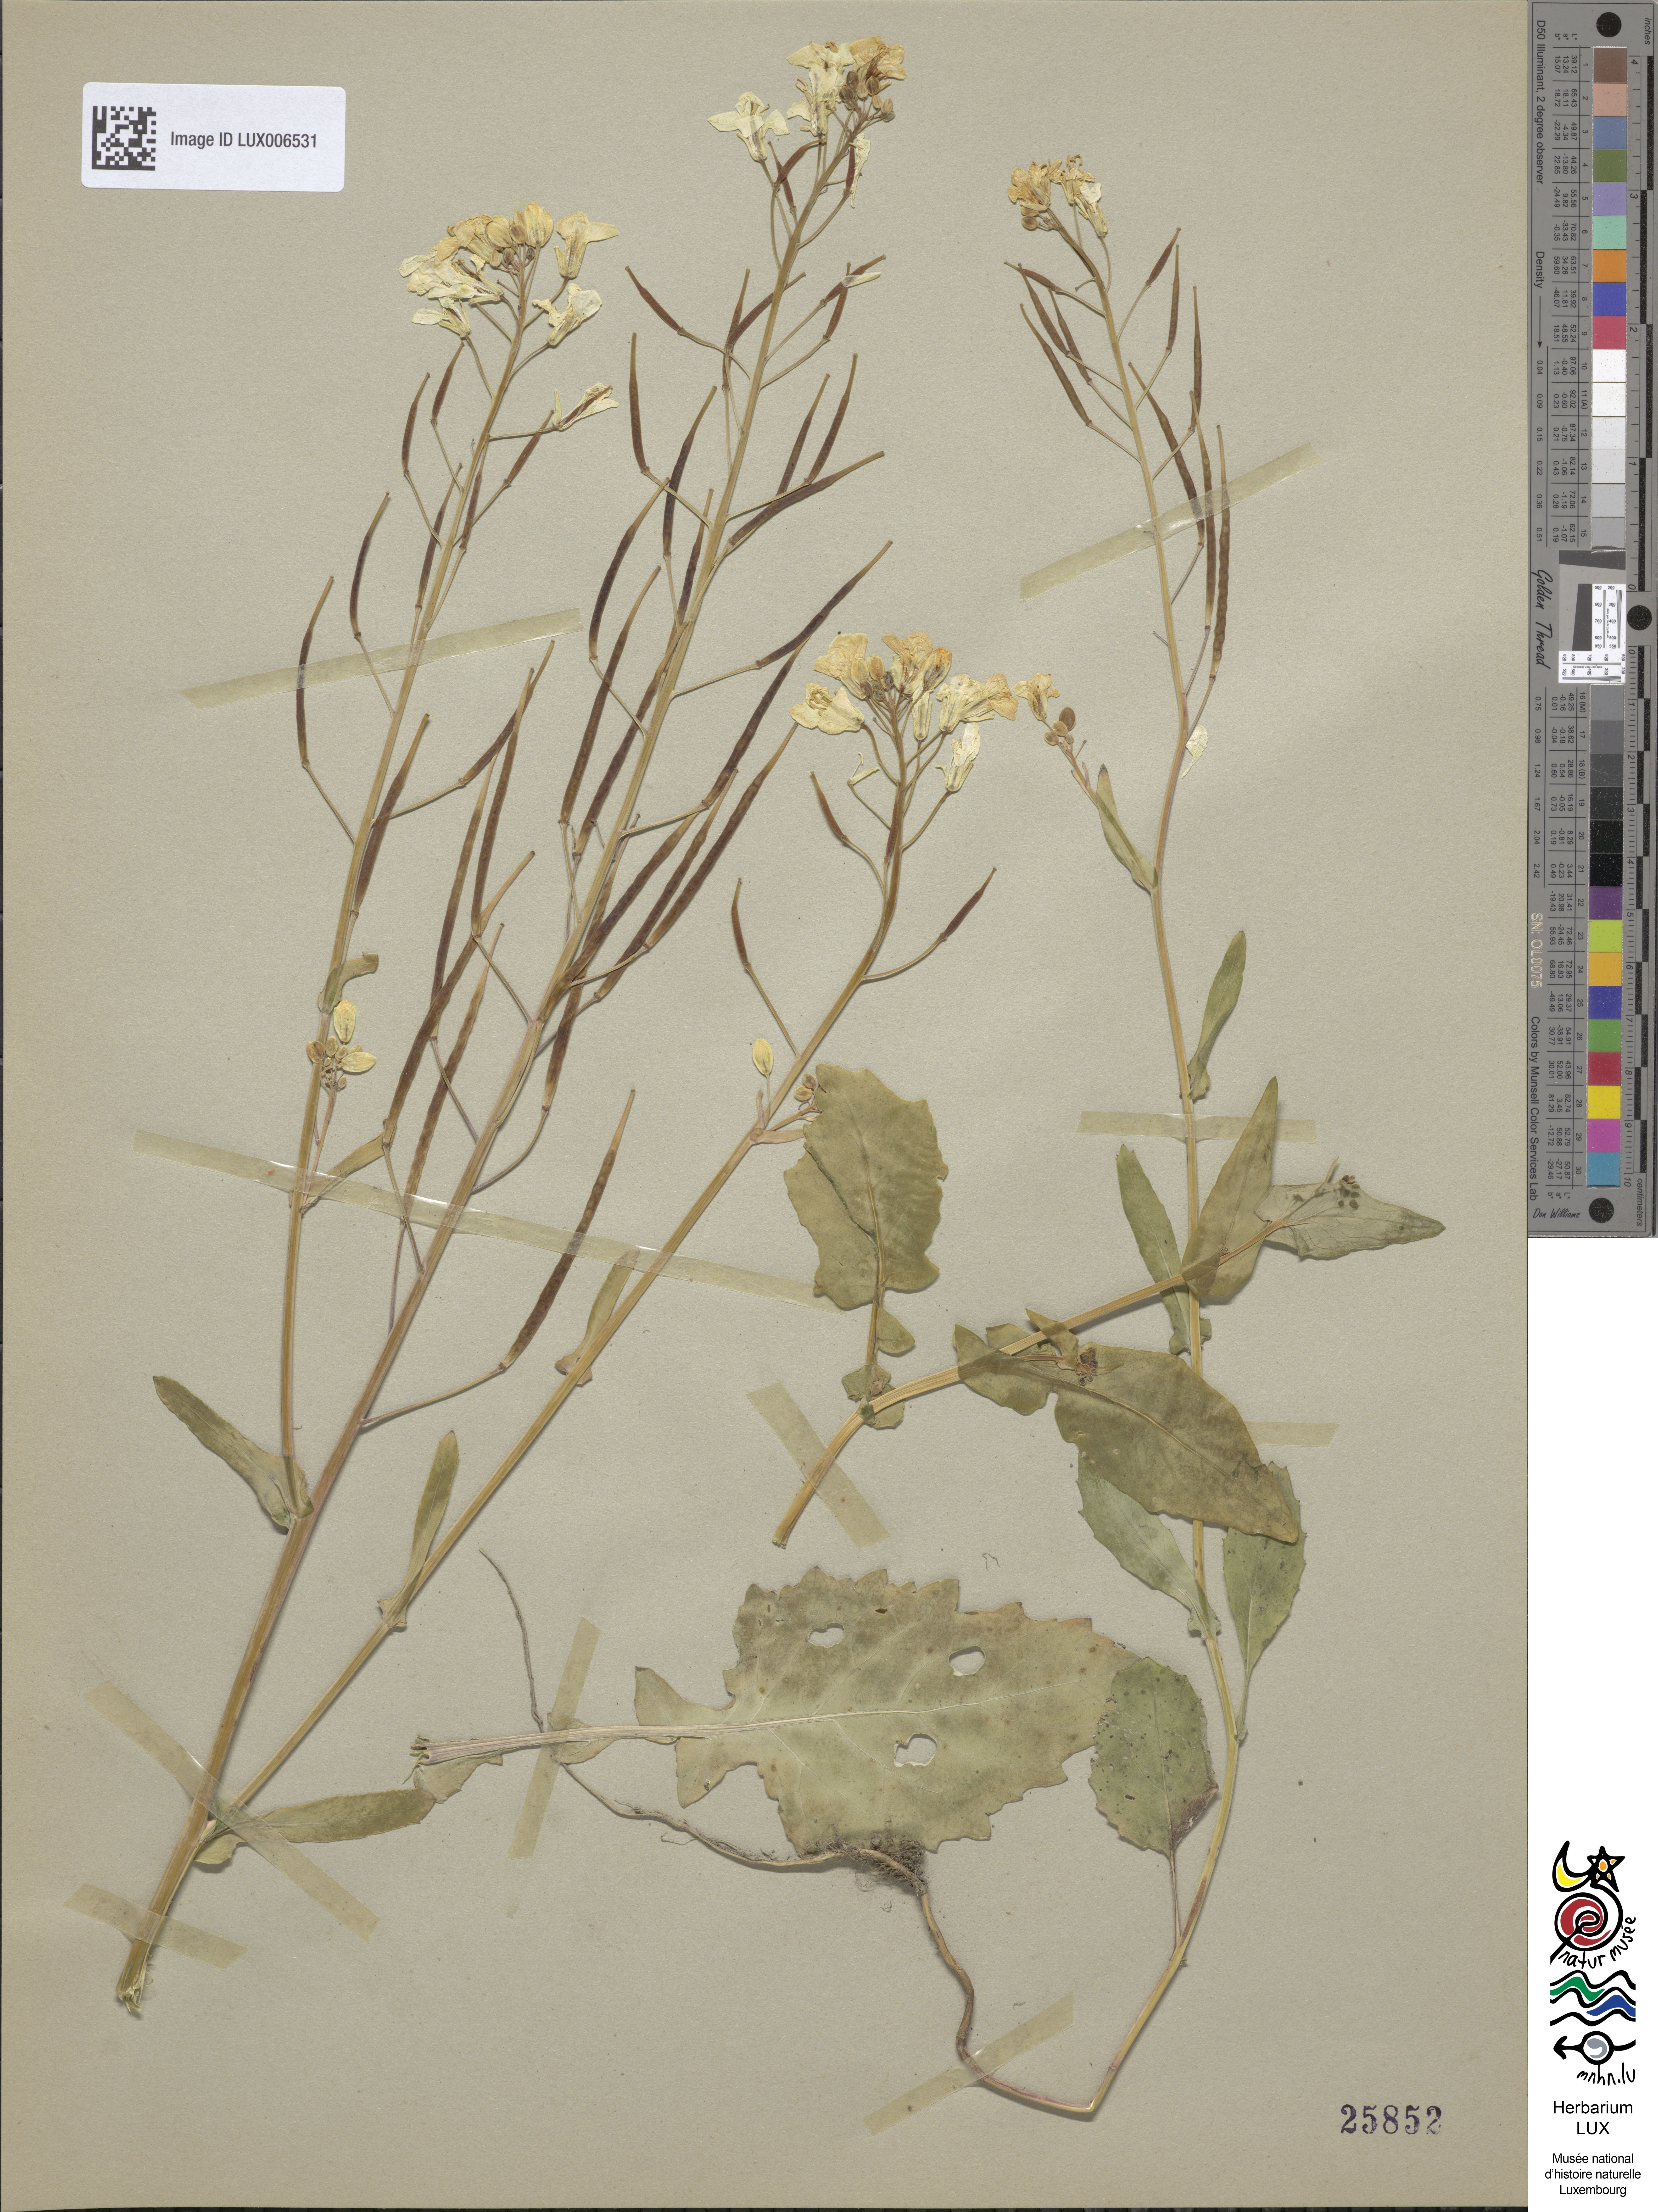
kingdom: Plantae
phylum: Tracheophyta
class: Magnoliopsida
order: Brassicales
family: Brassicaceae
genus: Brassica
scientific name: Brassica
